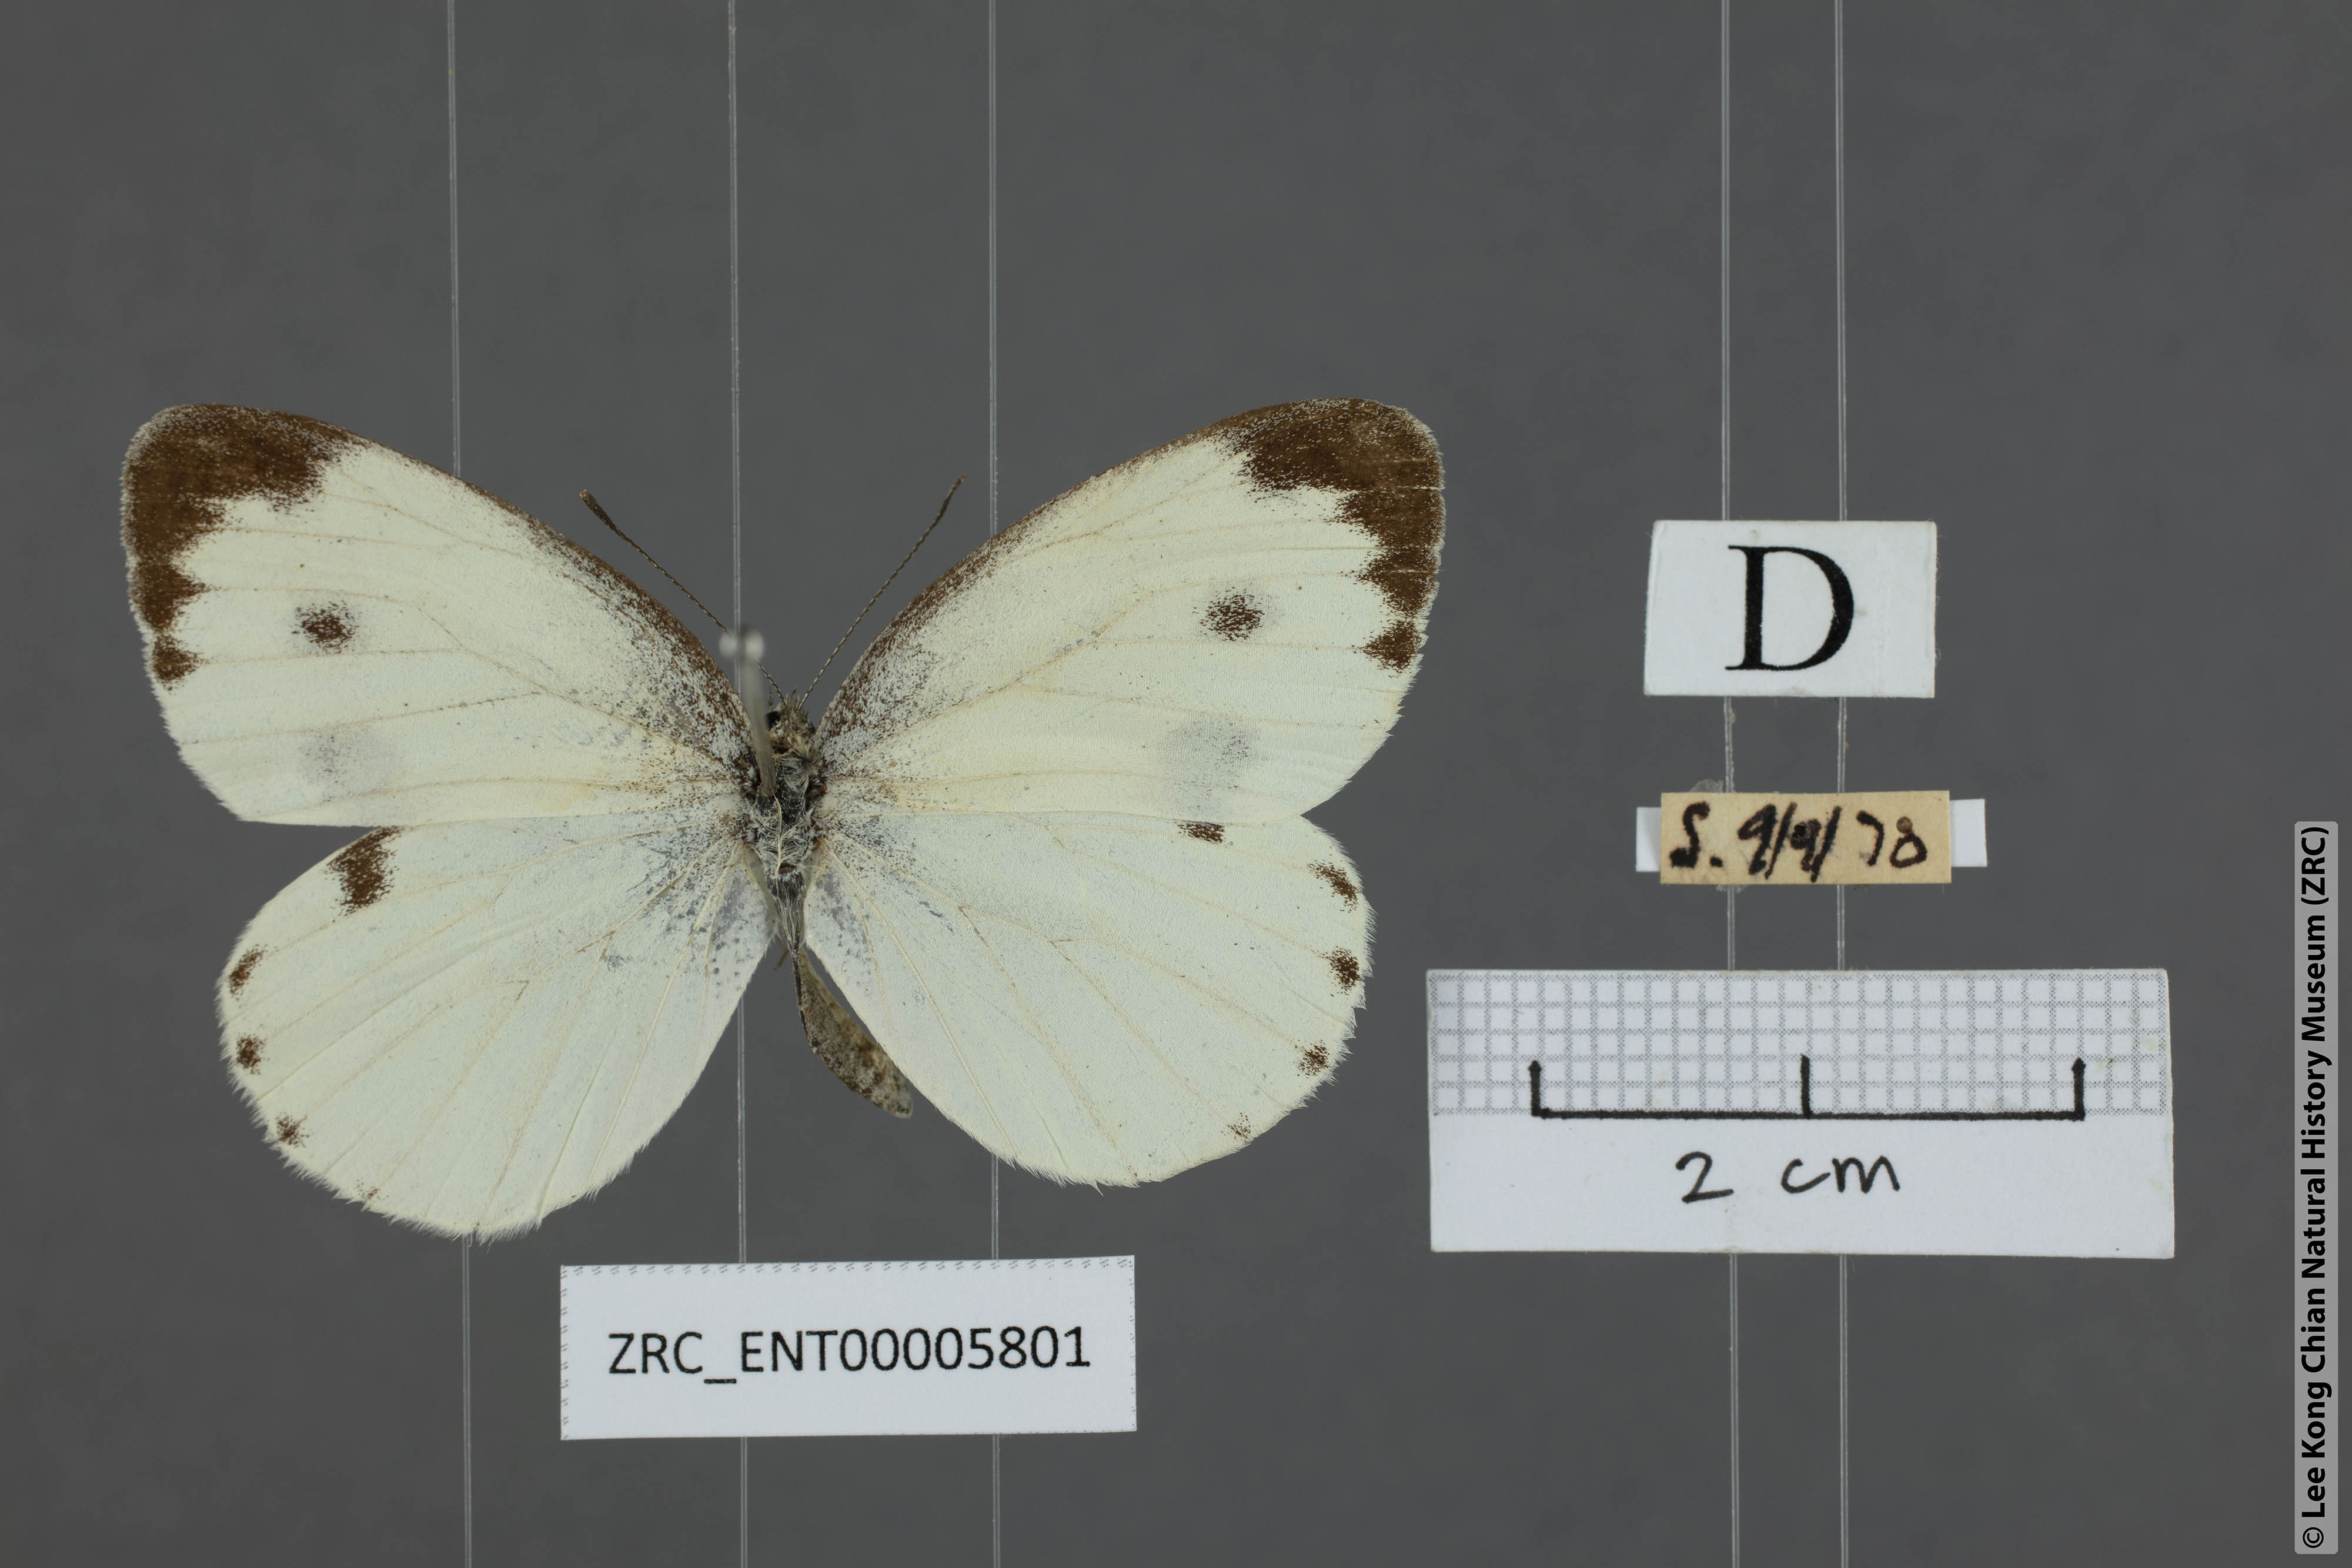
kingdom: Animalia
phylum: Arthropoda
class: Insecta
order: Lepidoptera
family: Pieridae
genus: Pieris
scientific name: Pieris canidia
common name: Indian cabbage white
